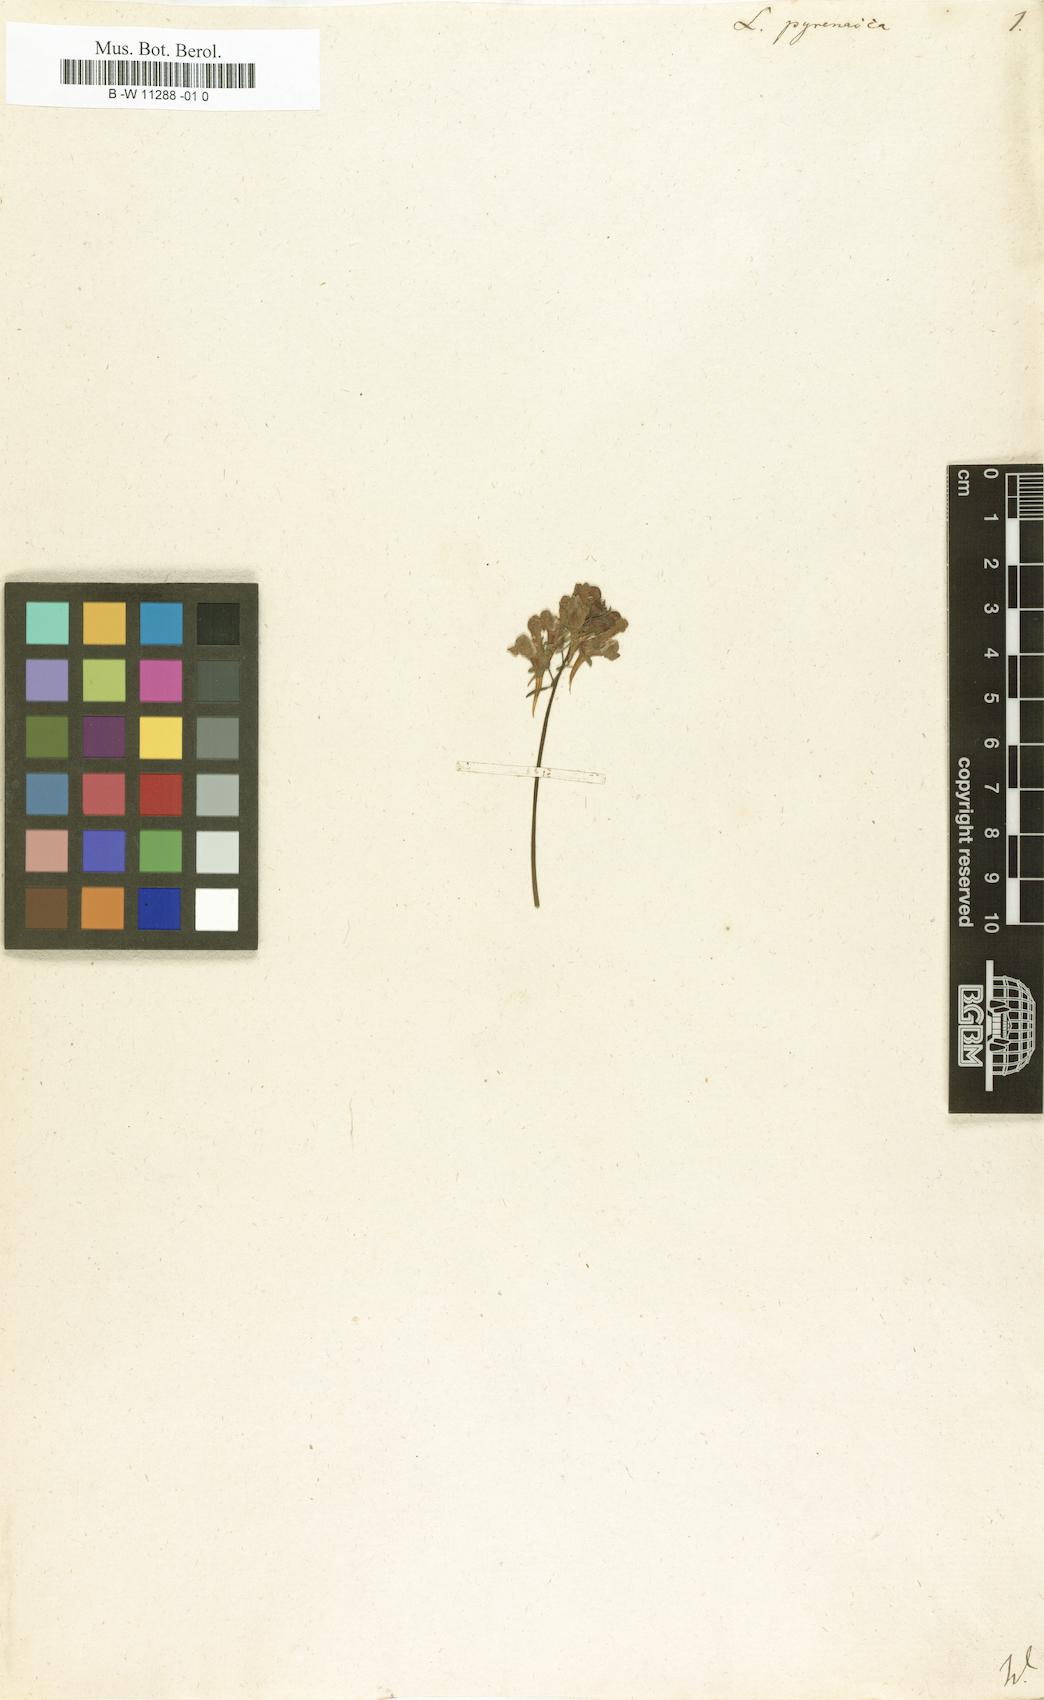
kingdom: Plantae
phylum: Tracheophyta
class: Magnoliopsida
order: Lamiales
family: Plantaginaceae
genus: Linaria
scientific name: Linaria supina
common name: Prostrate toadflax
